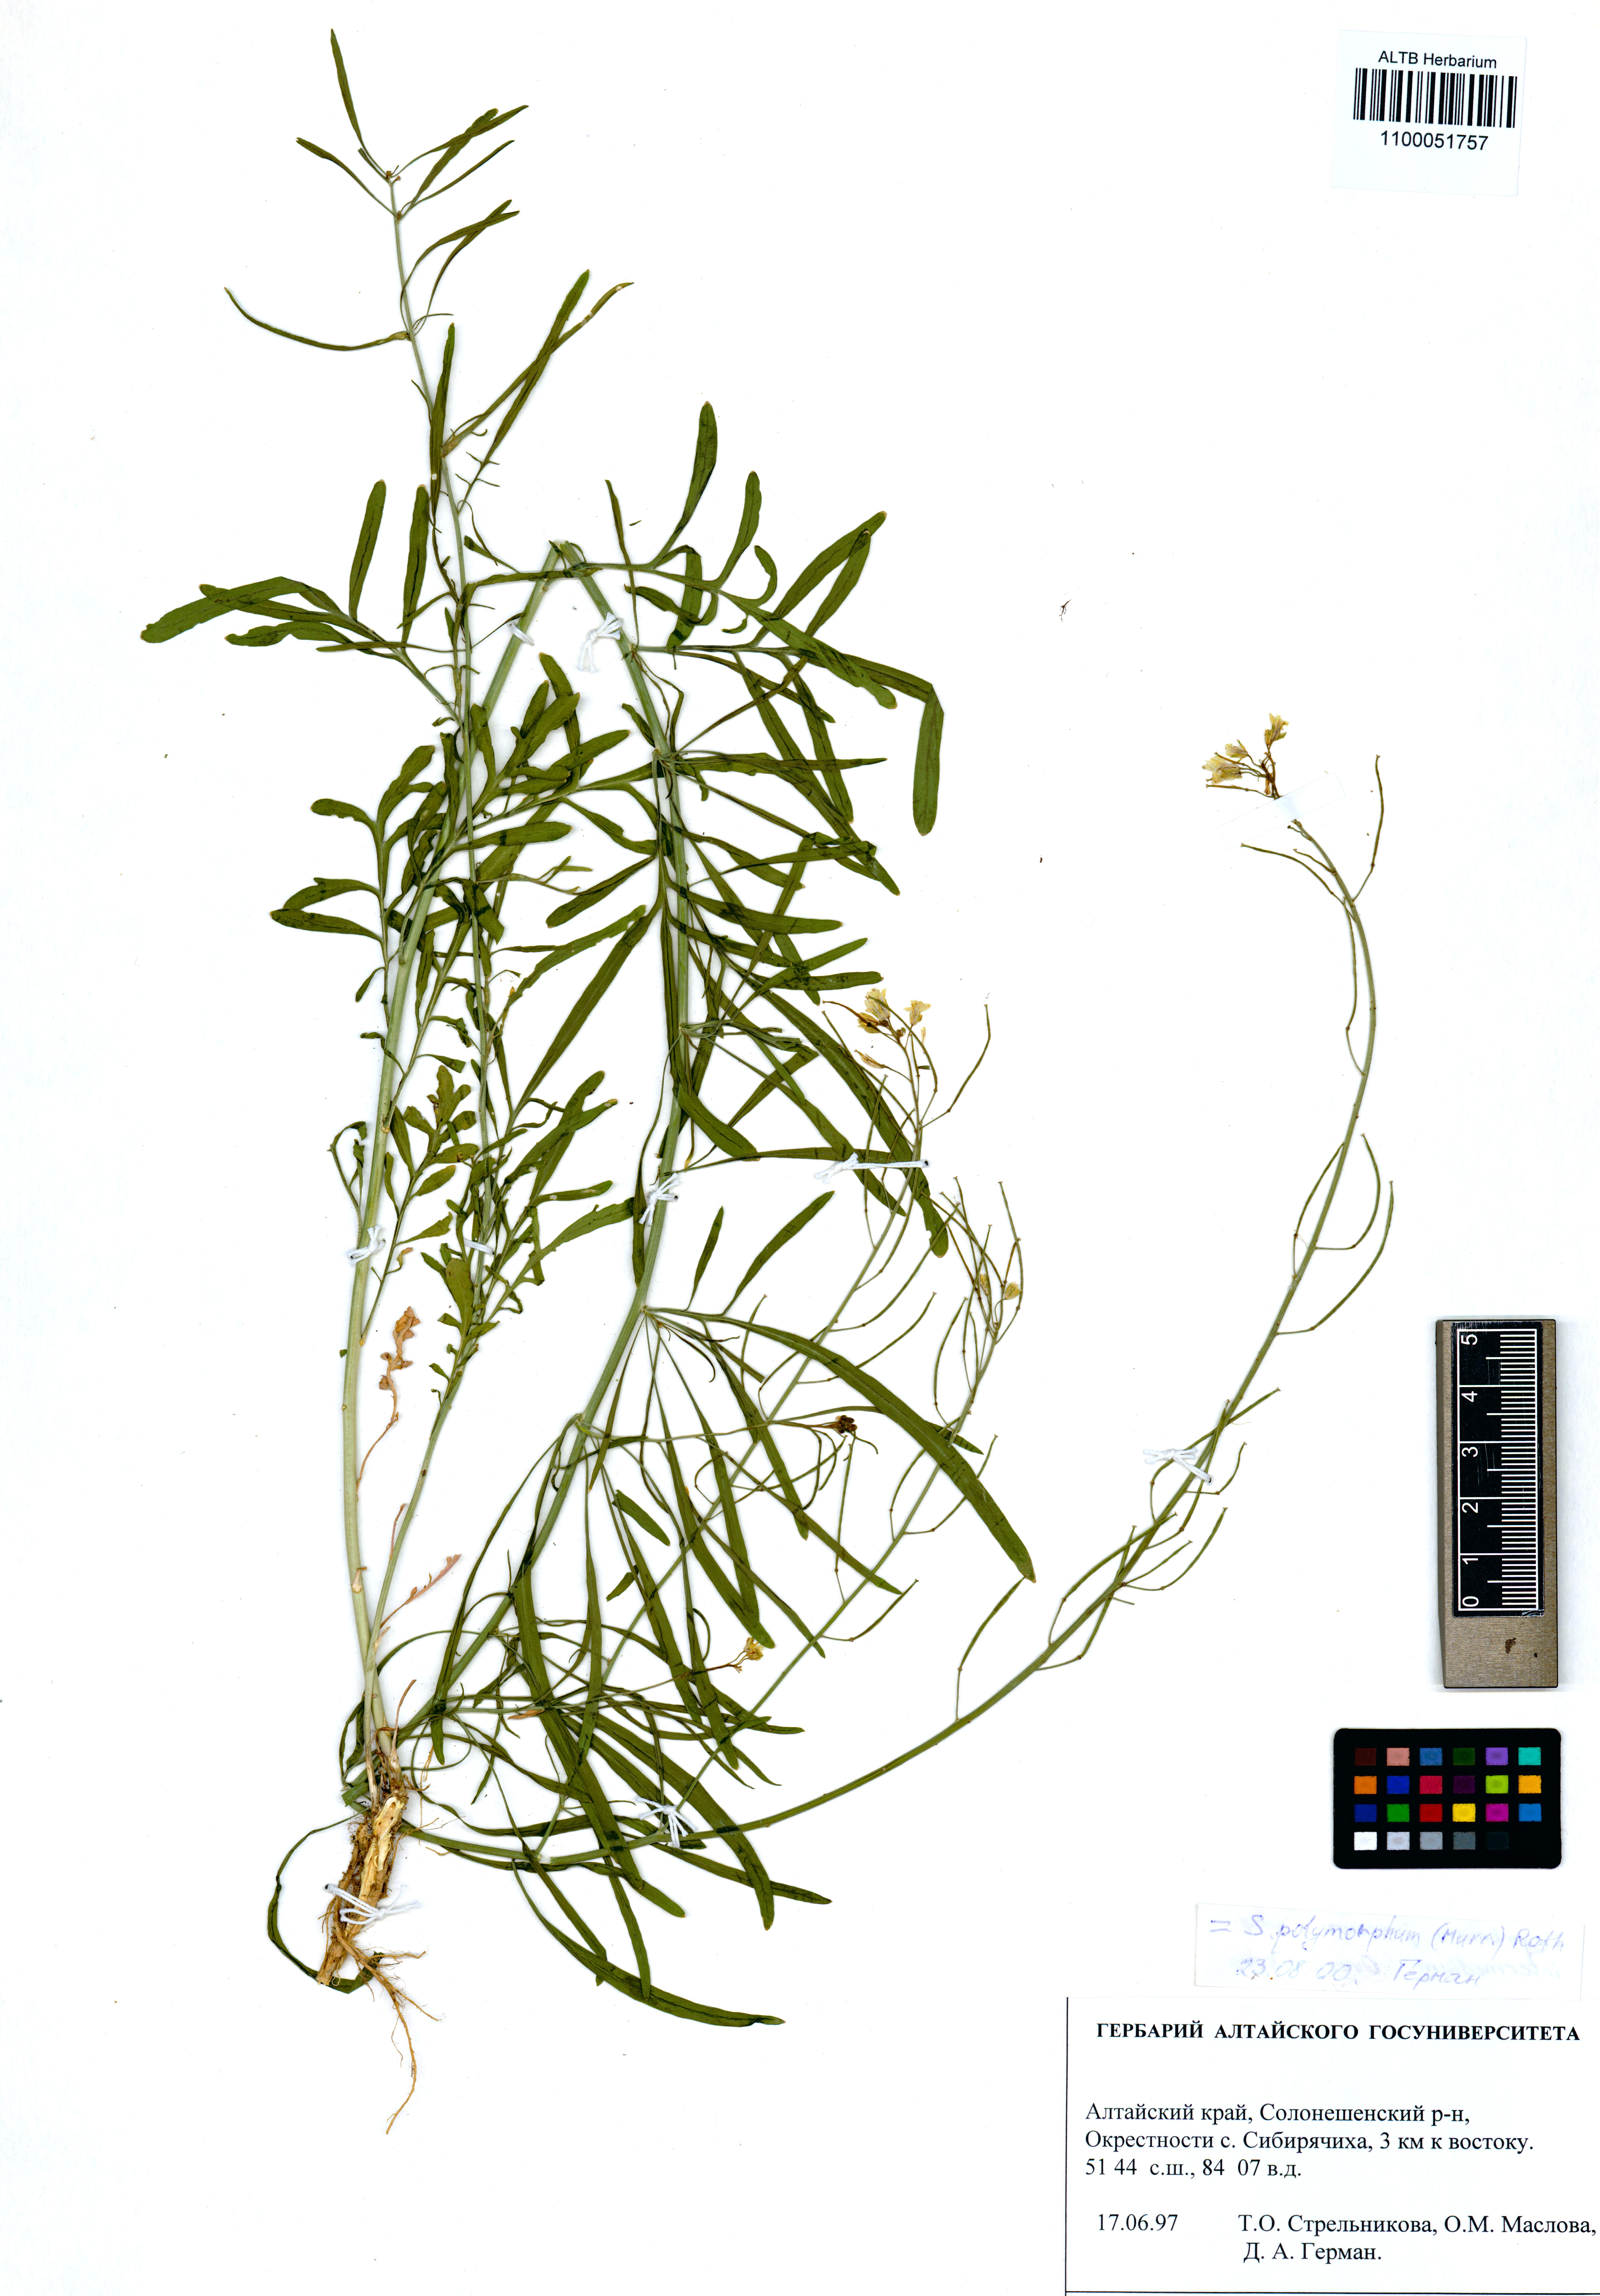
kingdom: Plantae
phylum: Tracheophyta
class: Magnoliopsida
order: Brassicales
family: Brassicaceae
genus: Sisymbrium
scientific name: Sisymbrium polymorphum
